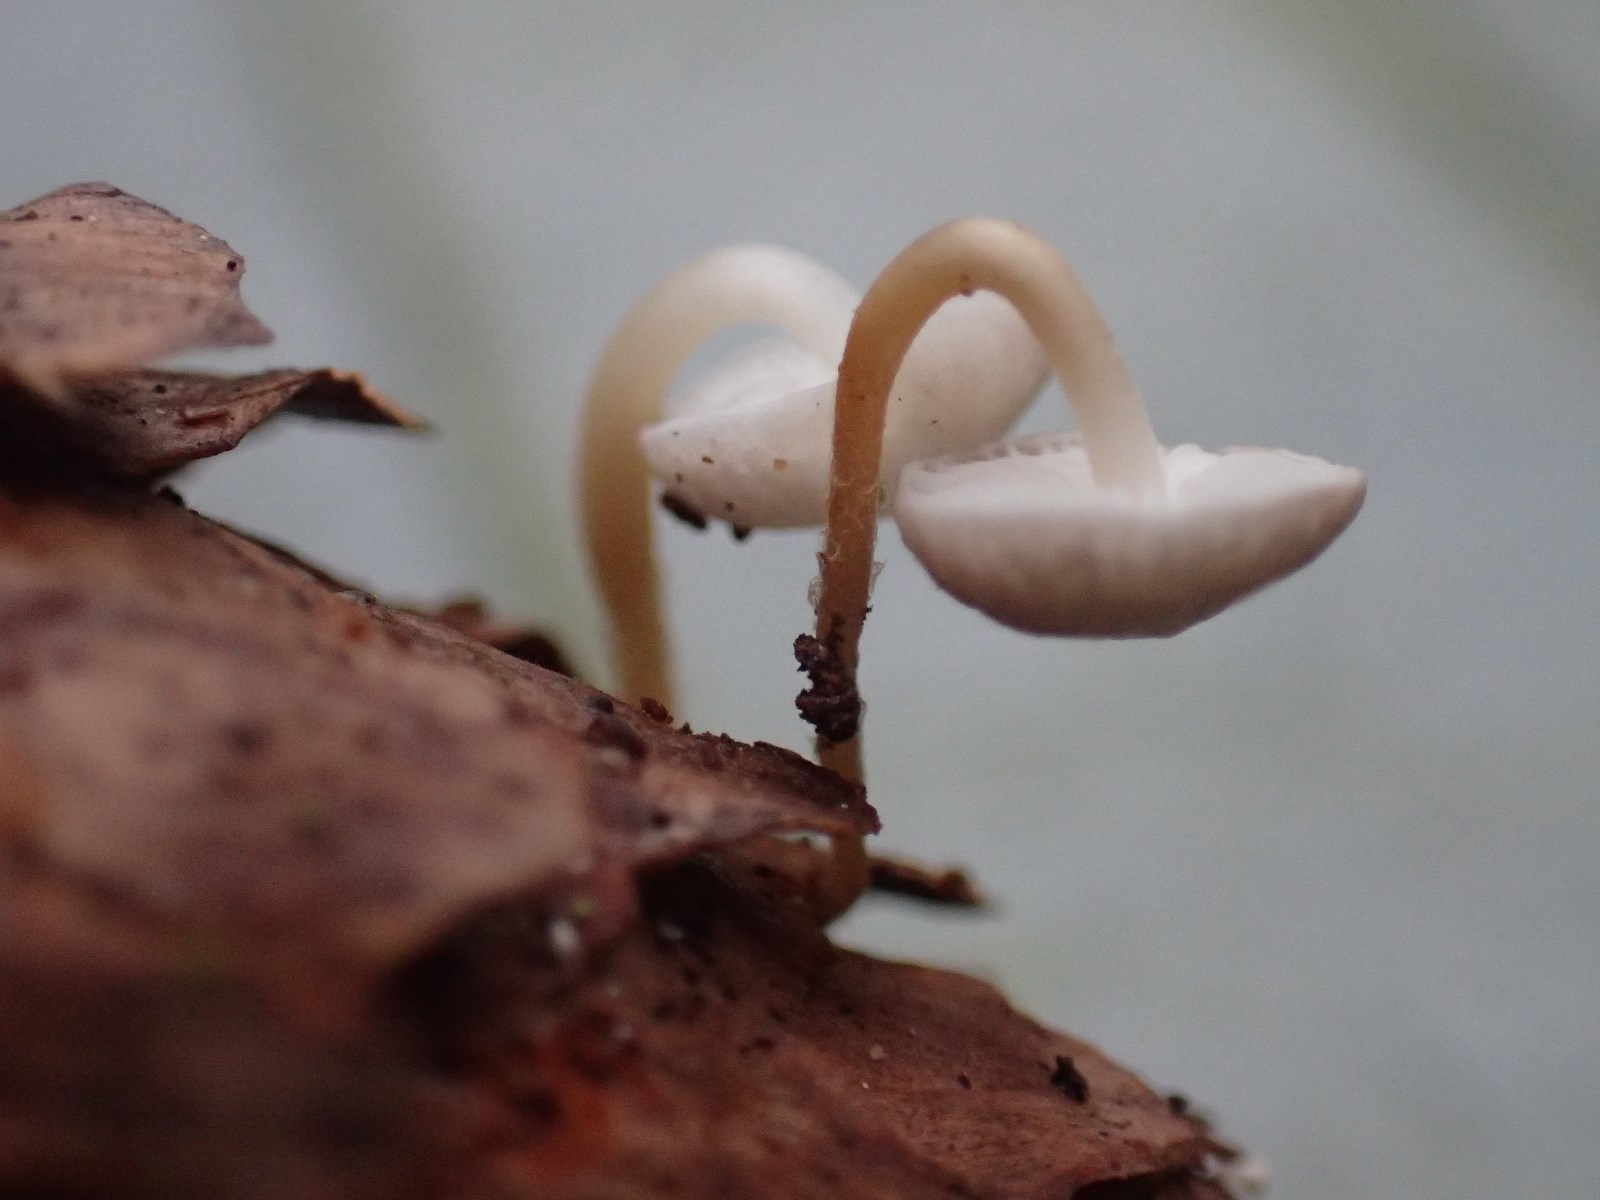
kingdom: Fungi
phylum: Basidiomycota
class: Agaricomycetes
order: Agaricales
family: Marasmiaceae
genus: Baeospora
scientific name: Baeospora myosura
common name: koglebruskhat
